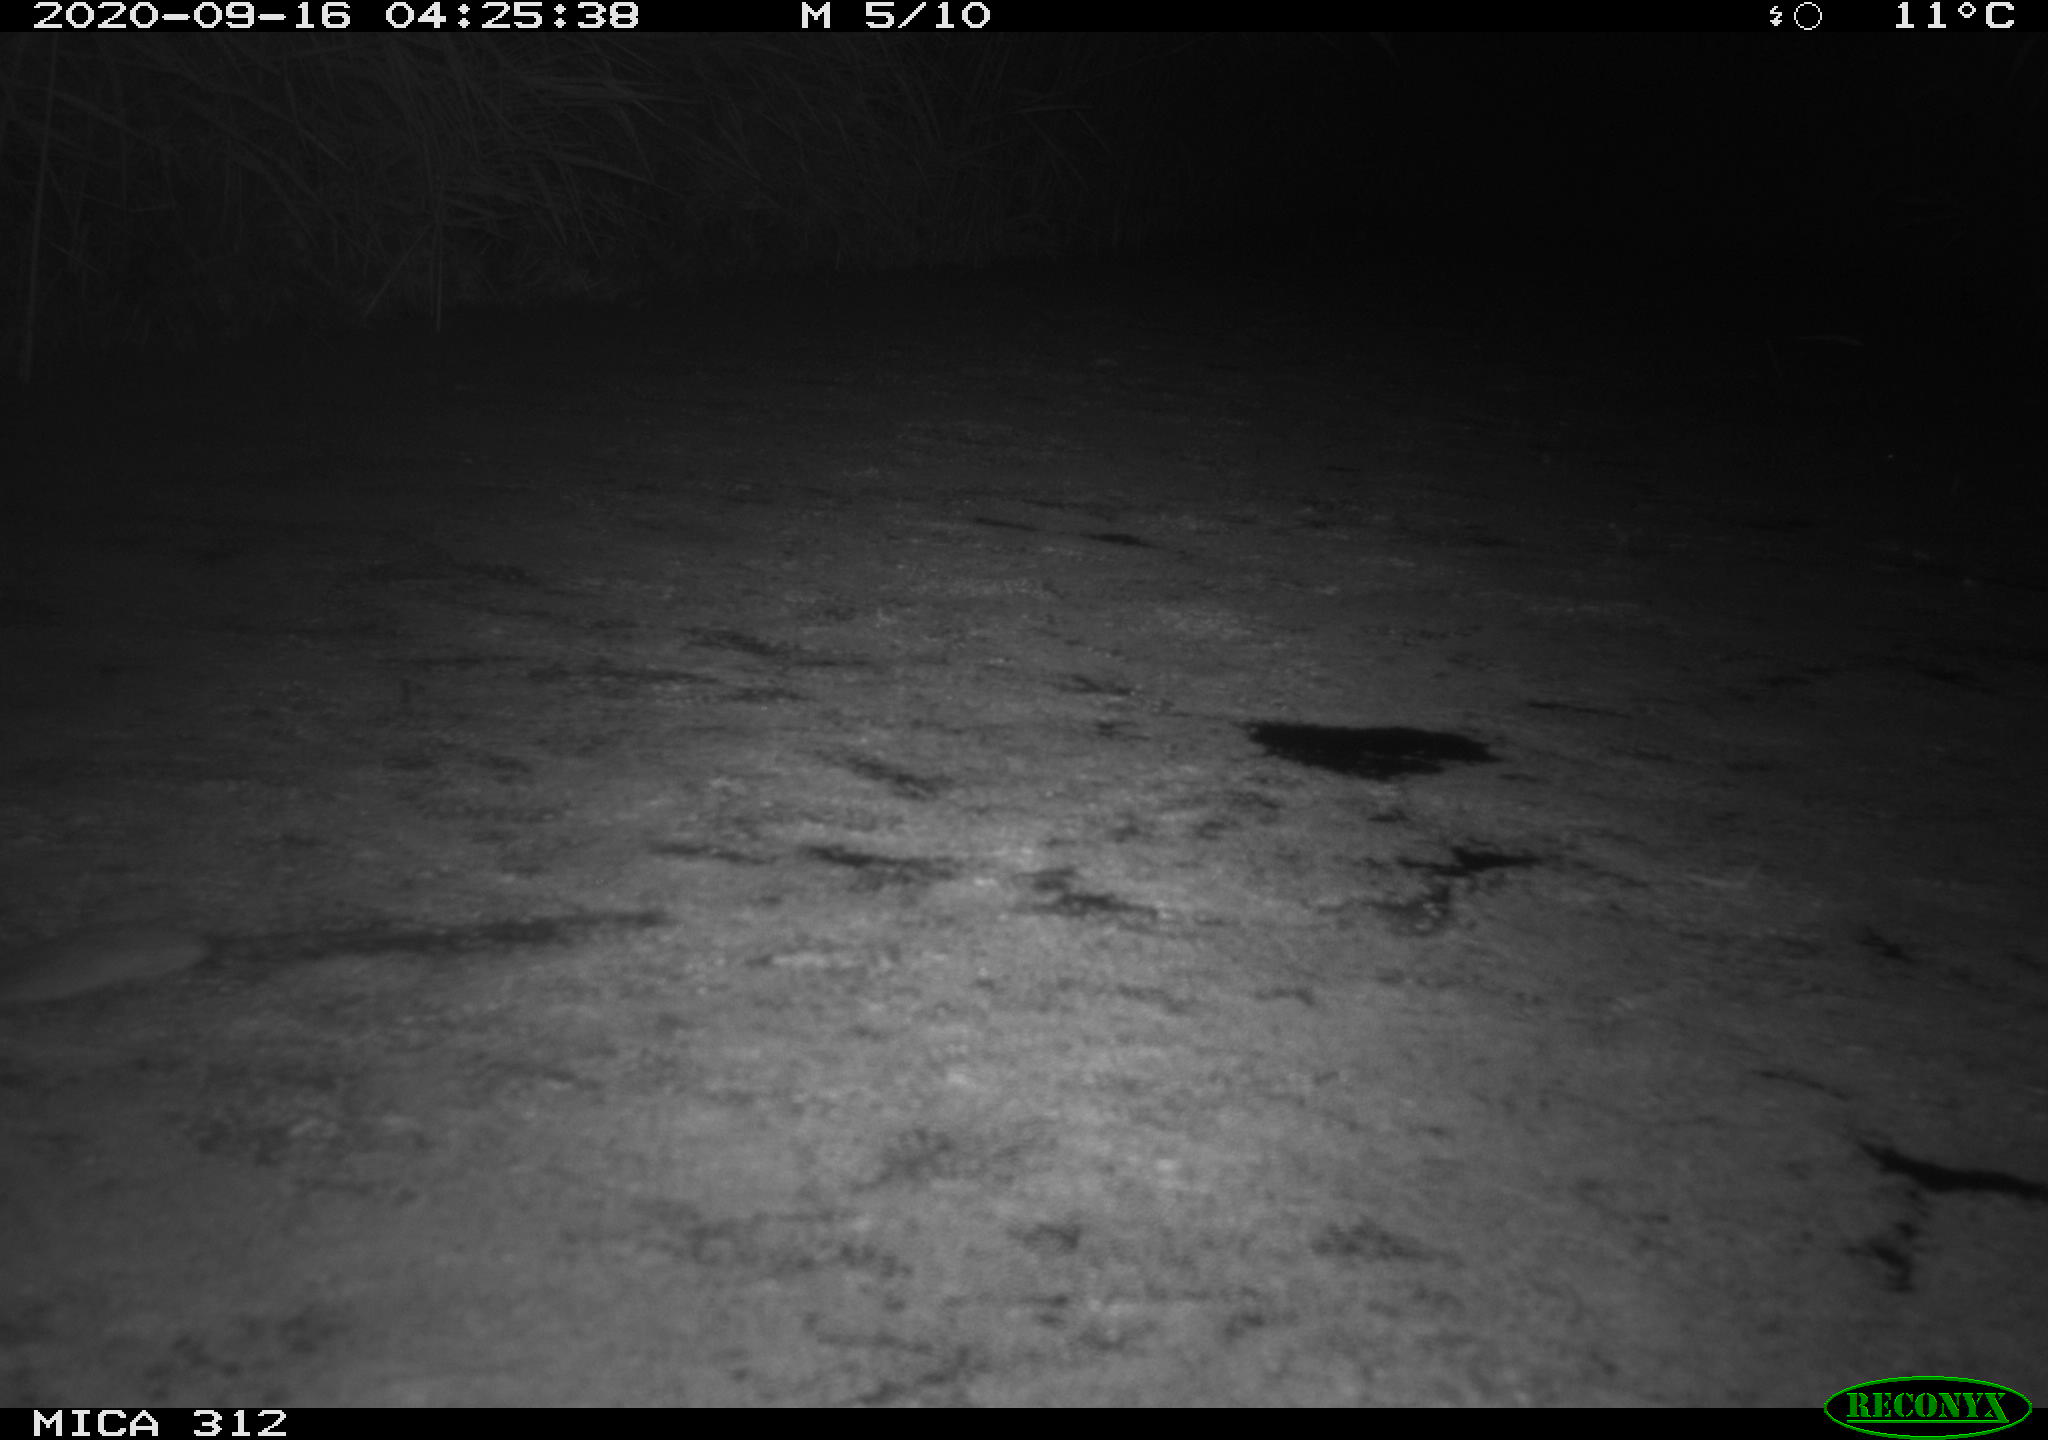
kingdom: Animalia
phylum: Chordata
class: Mammalia
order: Rodentia
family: Muridae
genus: Rattus
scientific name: Rattus norvegicus
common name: Brown rat
